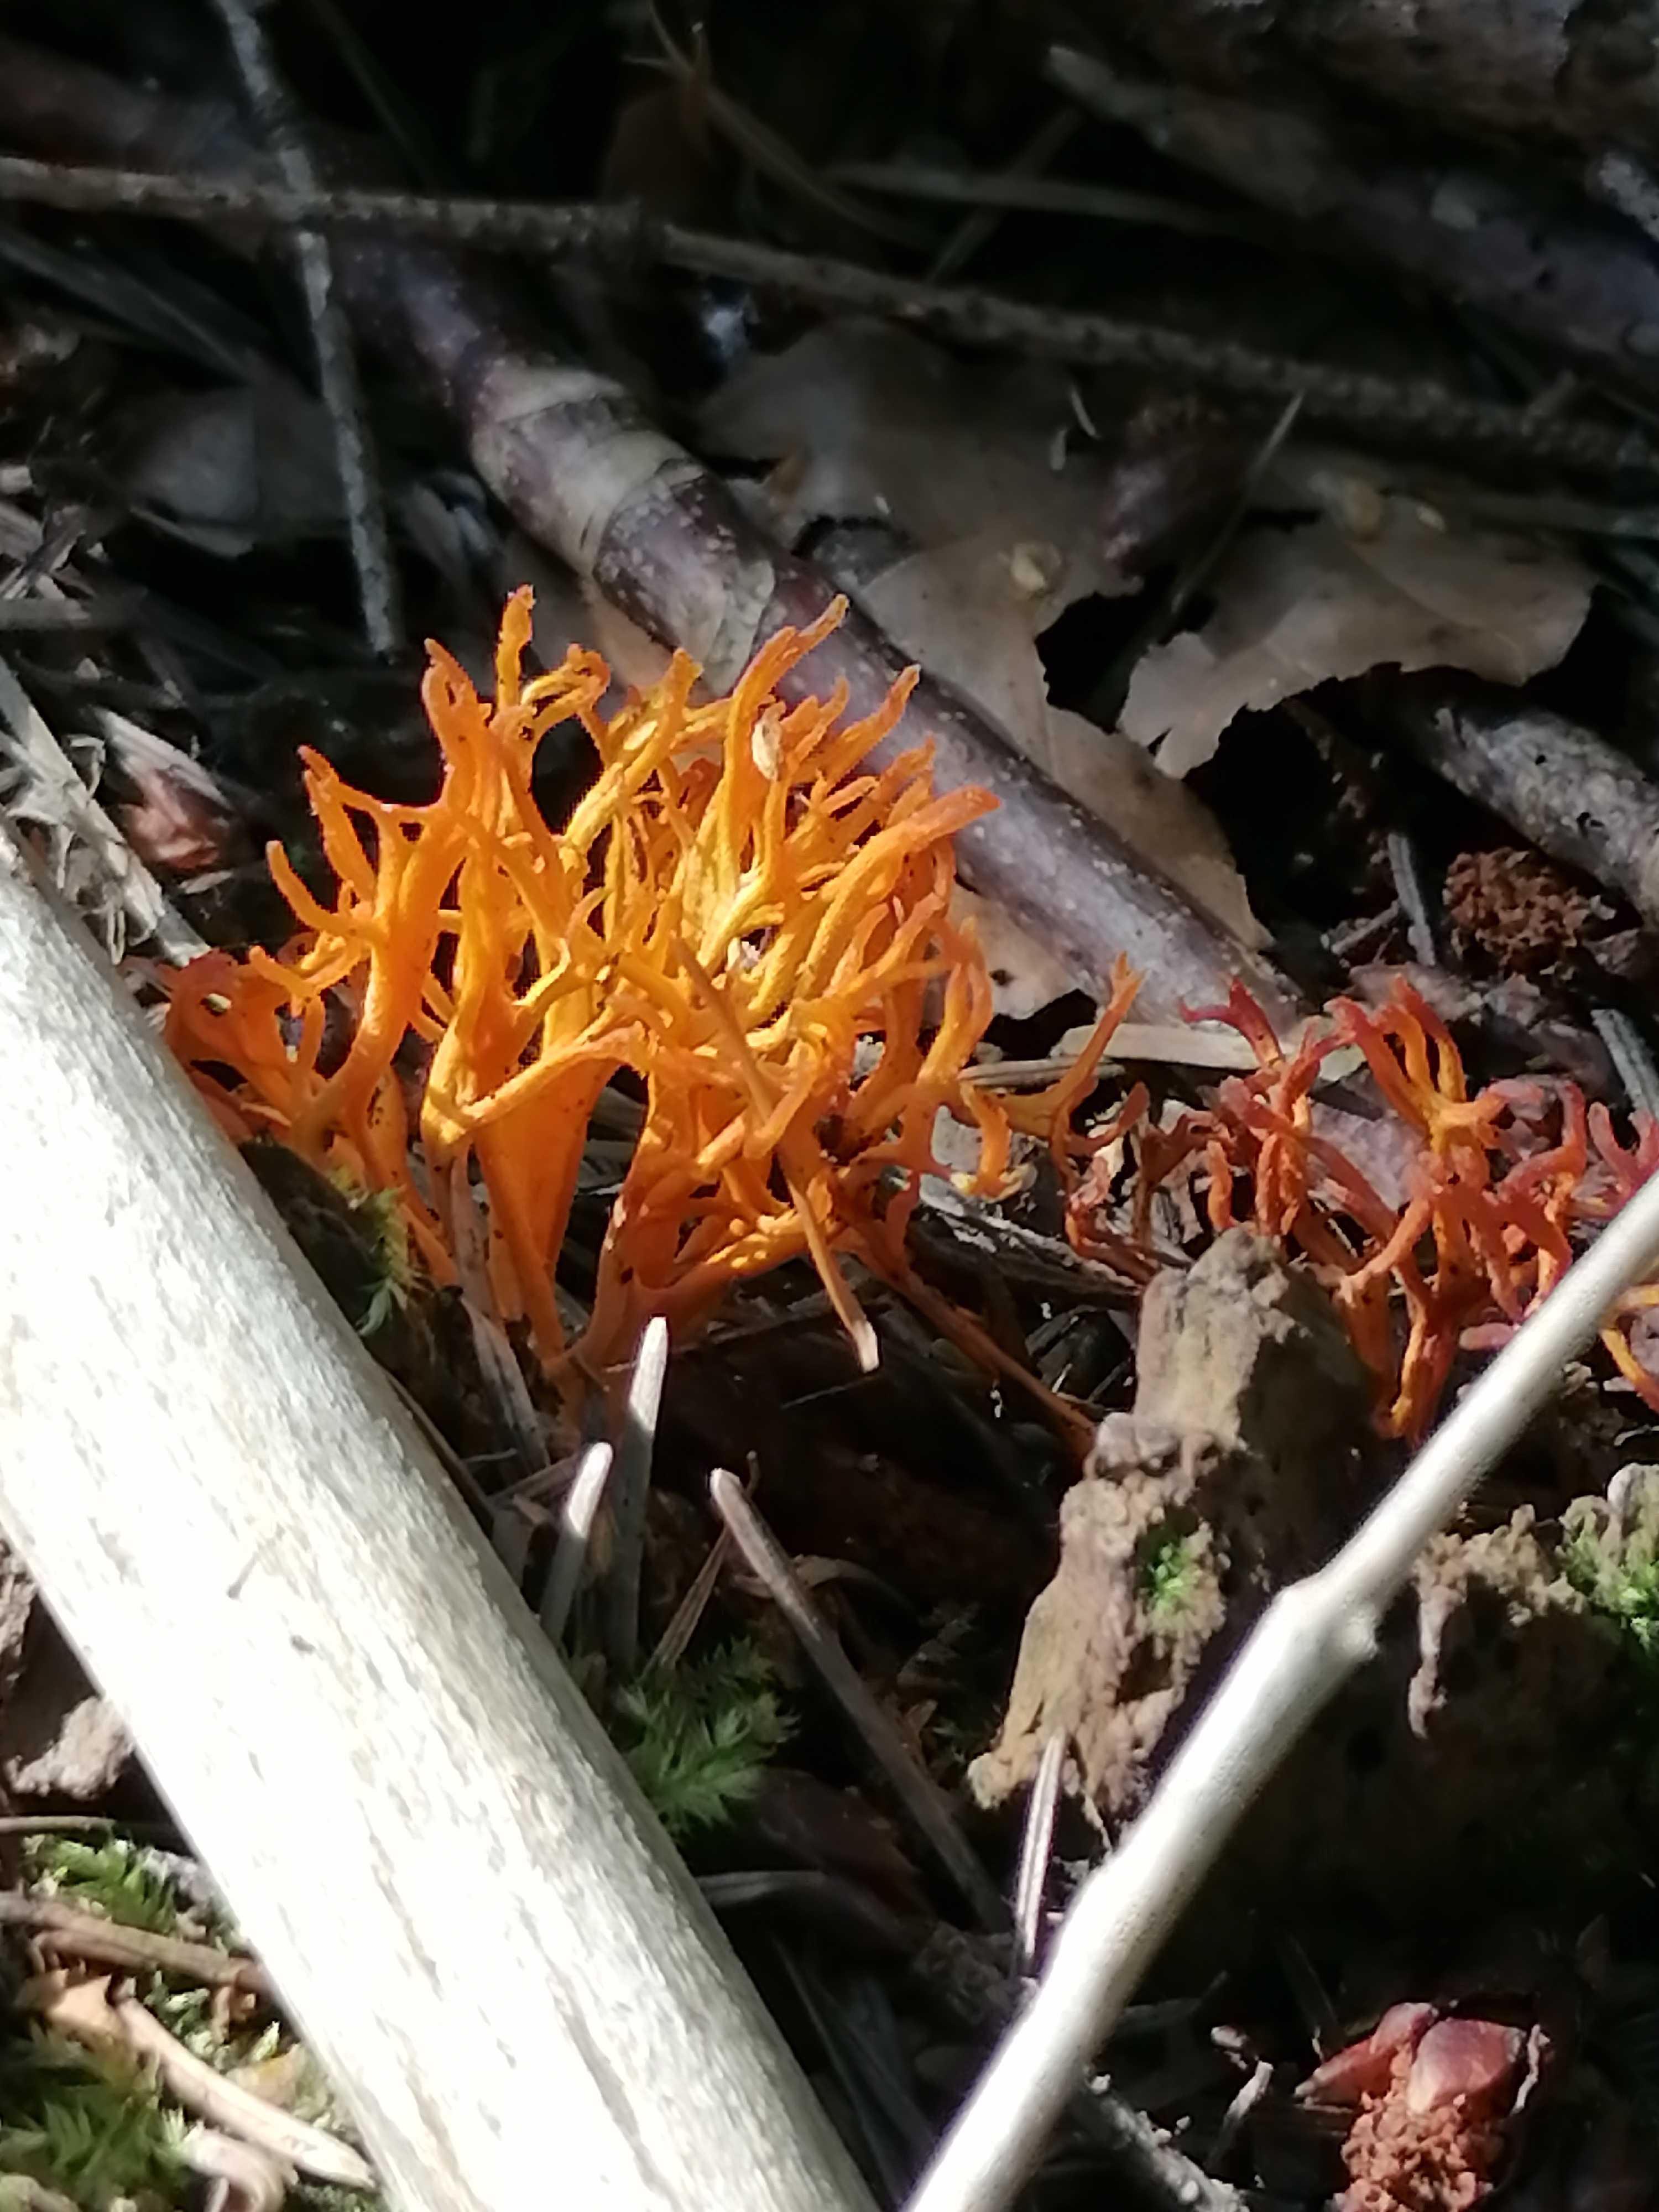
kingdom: Fungi
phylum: Basidiomycota
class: Dacrymycetes
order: Dacrymycetales
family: Dacrymycetaceae
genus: Calocera
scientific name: Calocera viscosa
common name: almindelig guldgaffel
